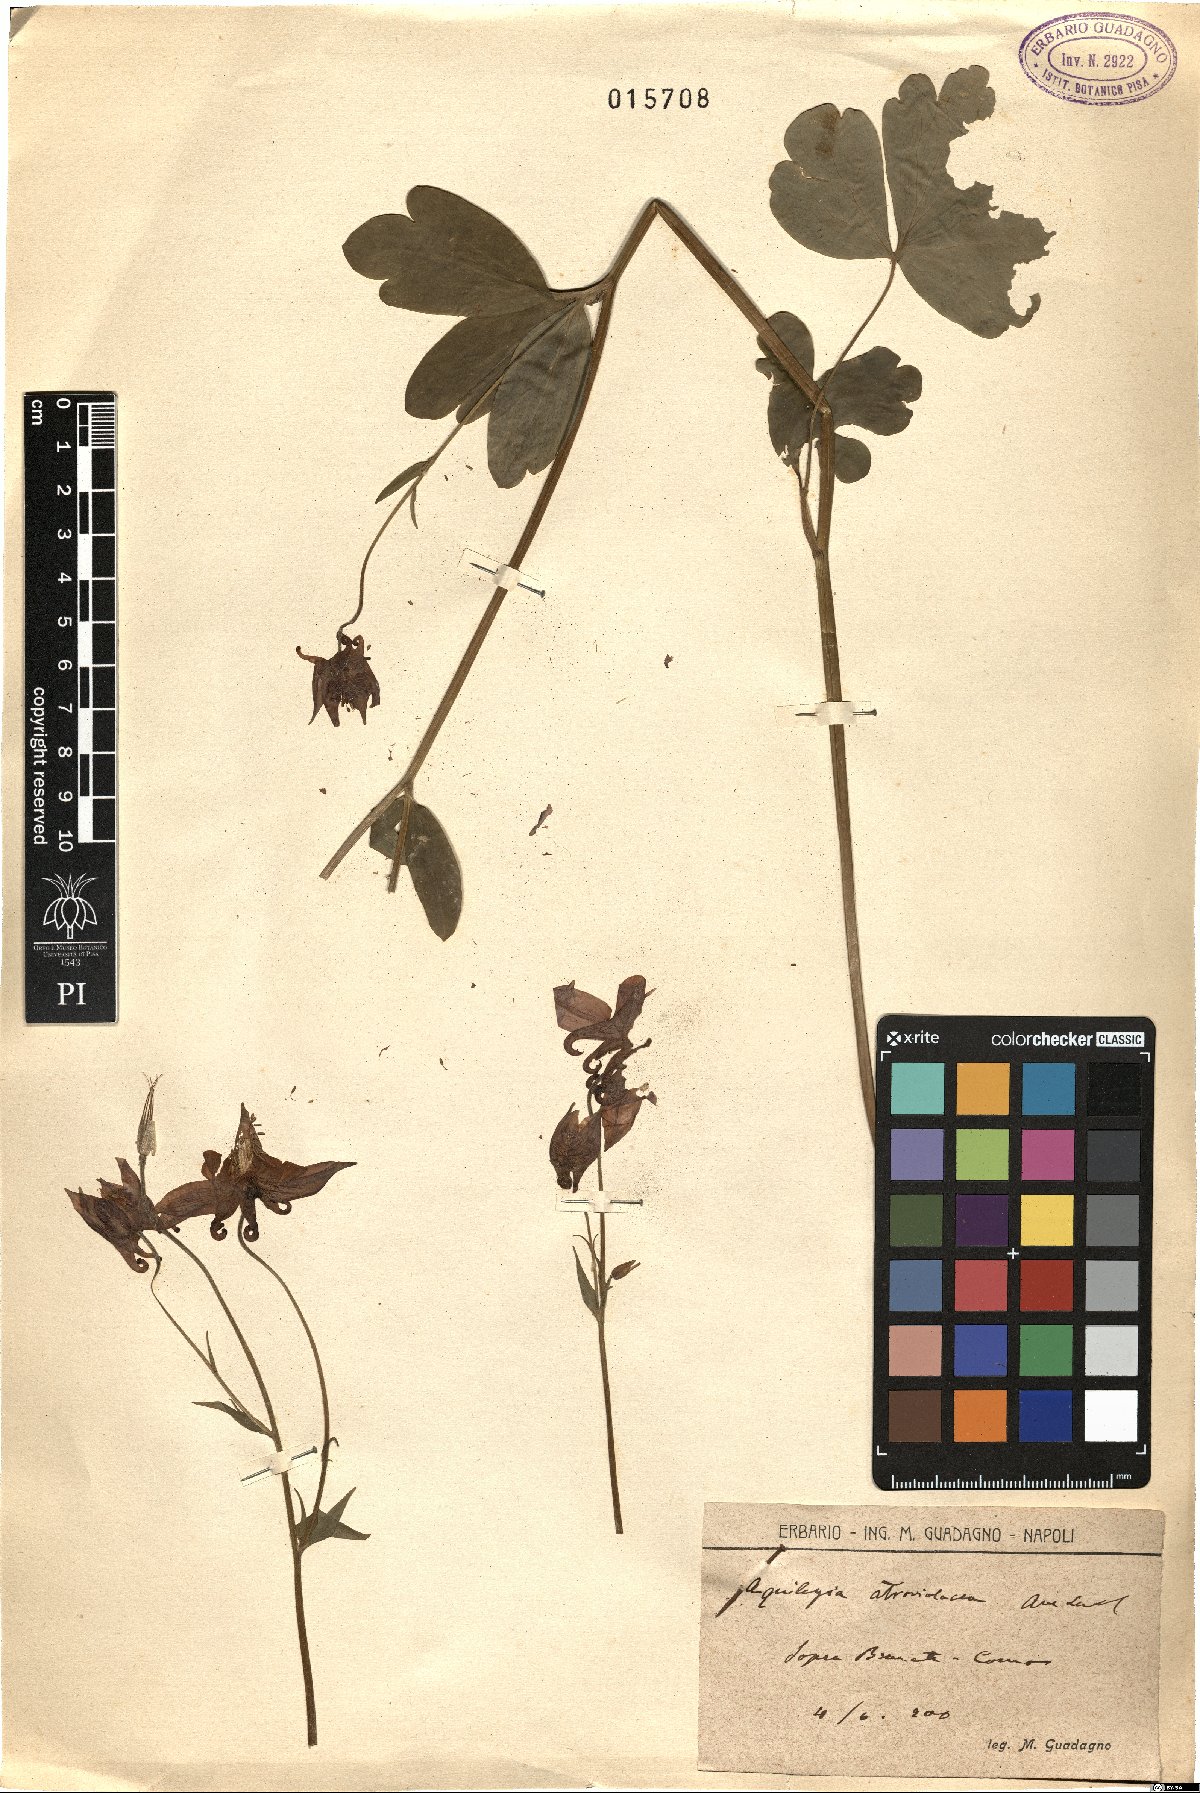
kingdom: Plantae
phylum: Tracheophyta
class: Magnoliopsida
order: Ranunculales
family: Ranunculaceae
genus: Aquilegia
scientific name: Aquilegia atrata
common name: Dark columbine
